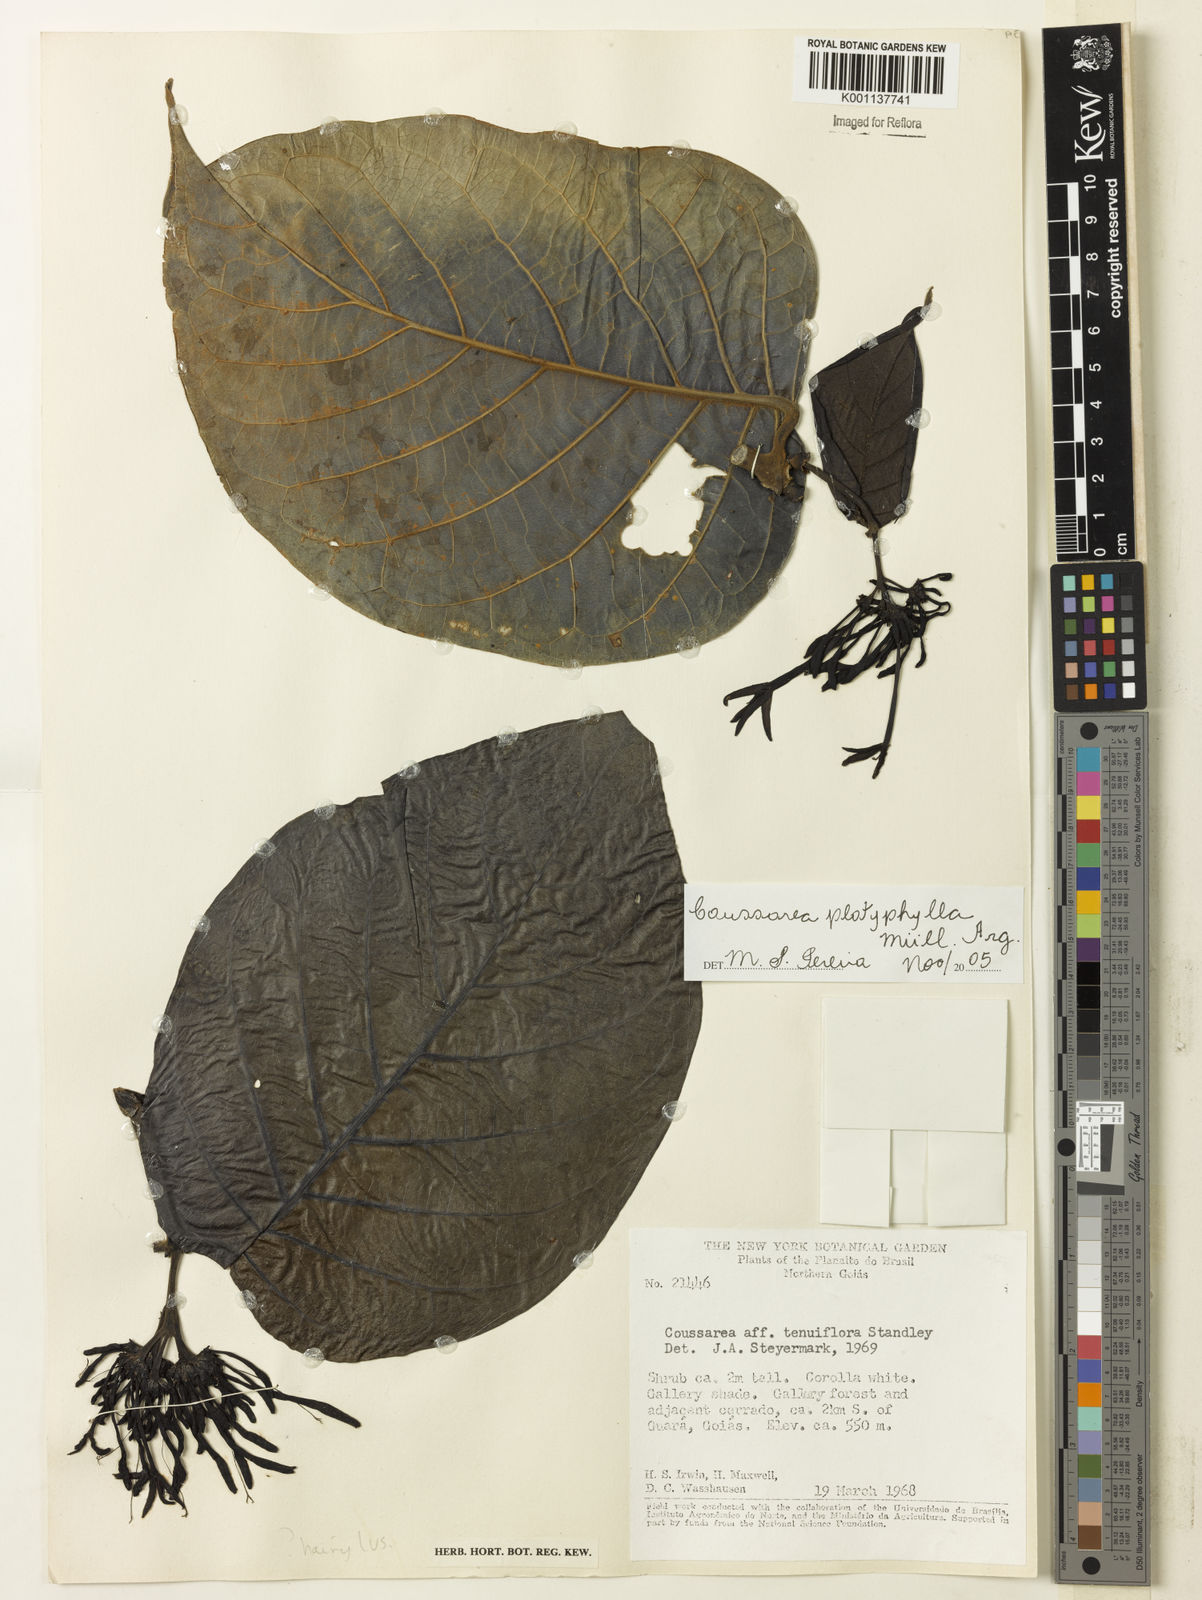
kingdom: Plantae
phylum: Tracheophyta
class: Magnoliopsida
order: Gentianales
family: Rubiaceae
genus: Coussarea
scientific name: Coussarea
